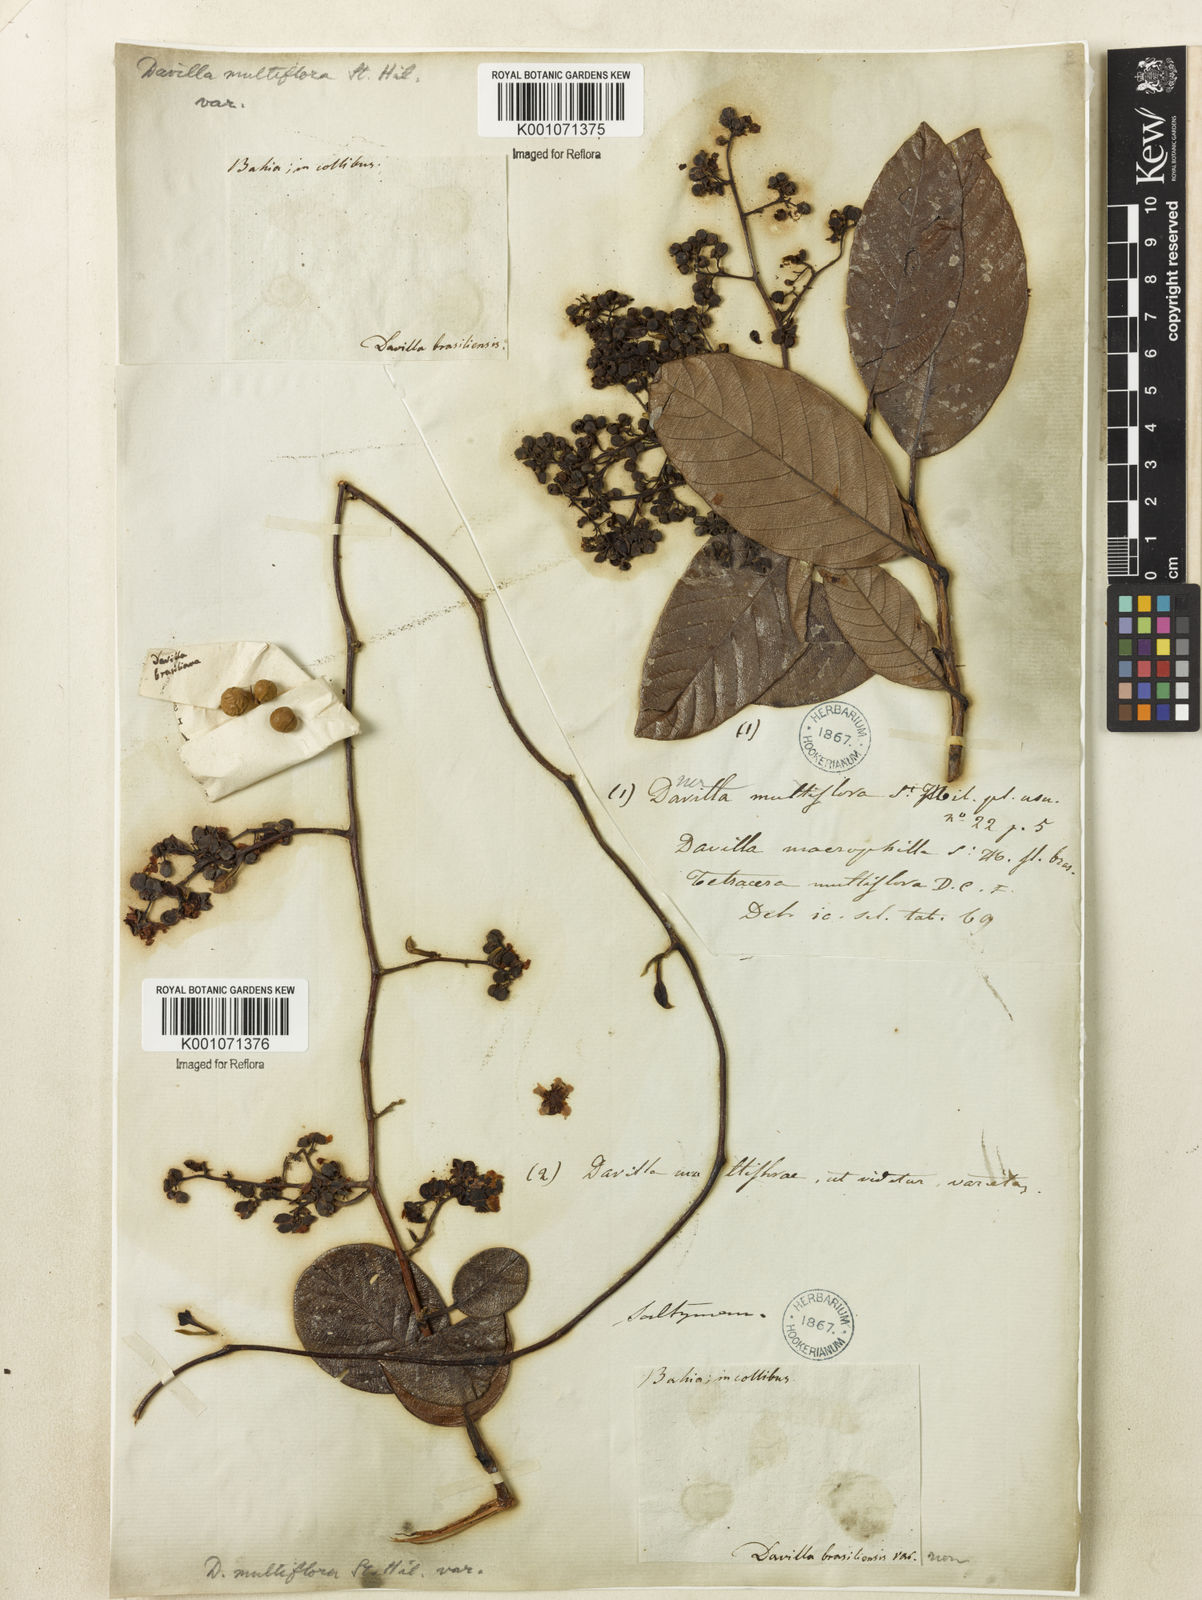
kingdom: Plantae
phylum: Tracheophyta
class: Magnoliopsida
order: Dilleniales
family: Dilleniaceae
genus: Davilla
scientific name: Davilla nitida
